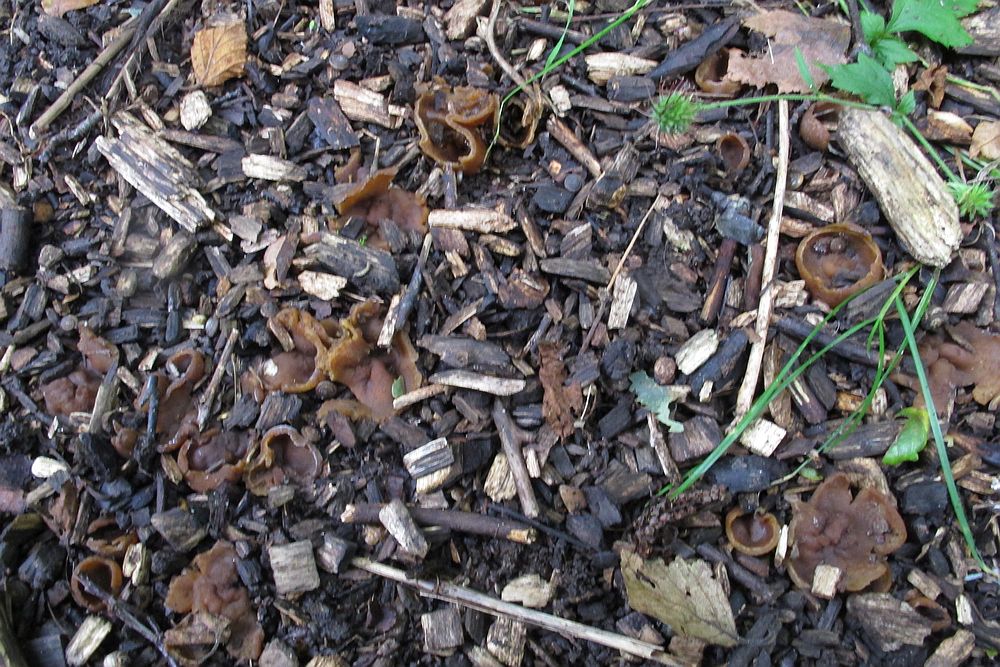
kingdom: Fungi
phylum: Ascomycota
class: Pezizomycetes
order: Pezizales
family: Pezizaceae
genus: Paragalactinia
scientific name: Paragalactinia michelii
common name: gulkødet bægersvamp
